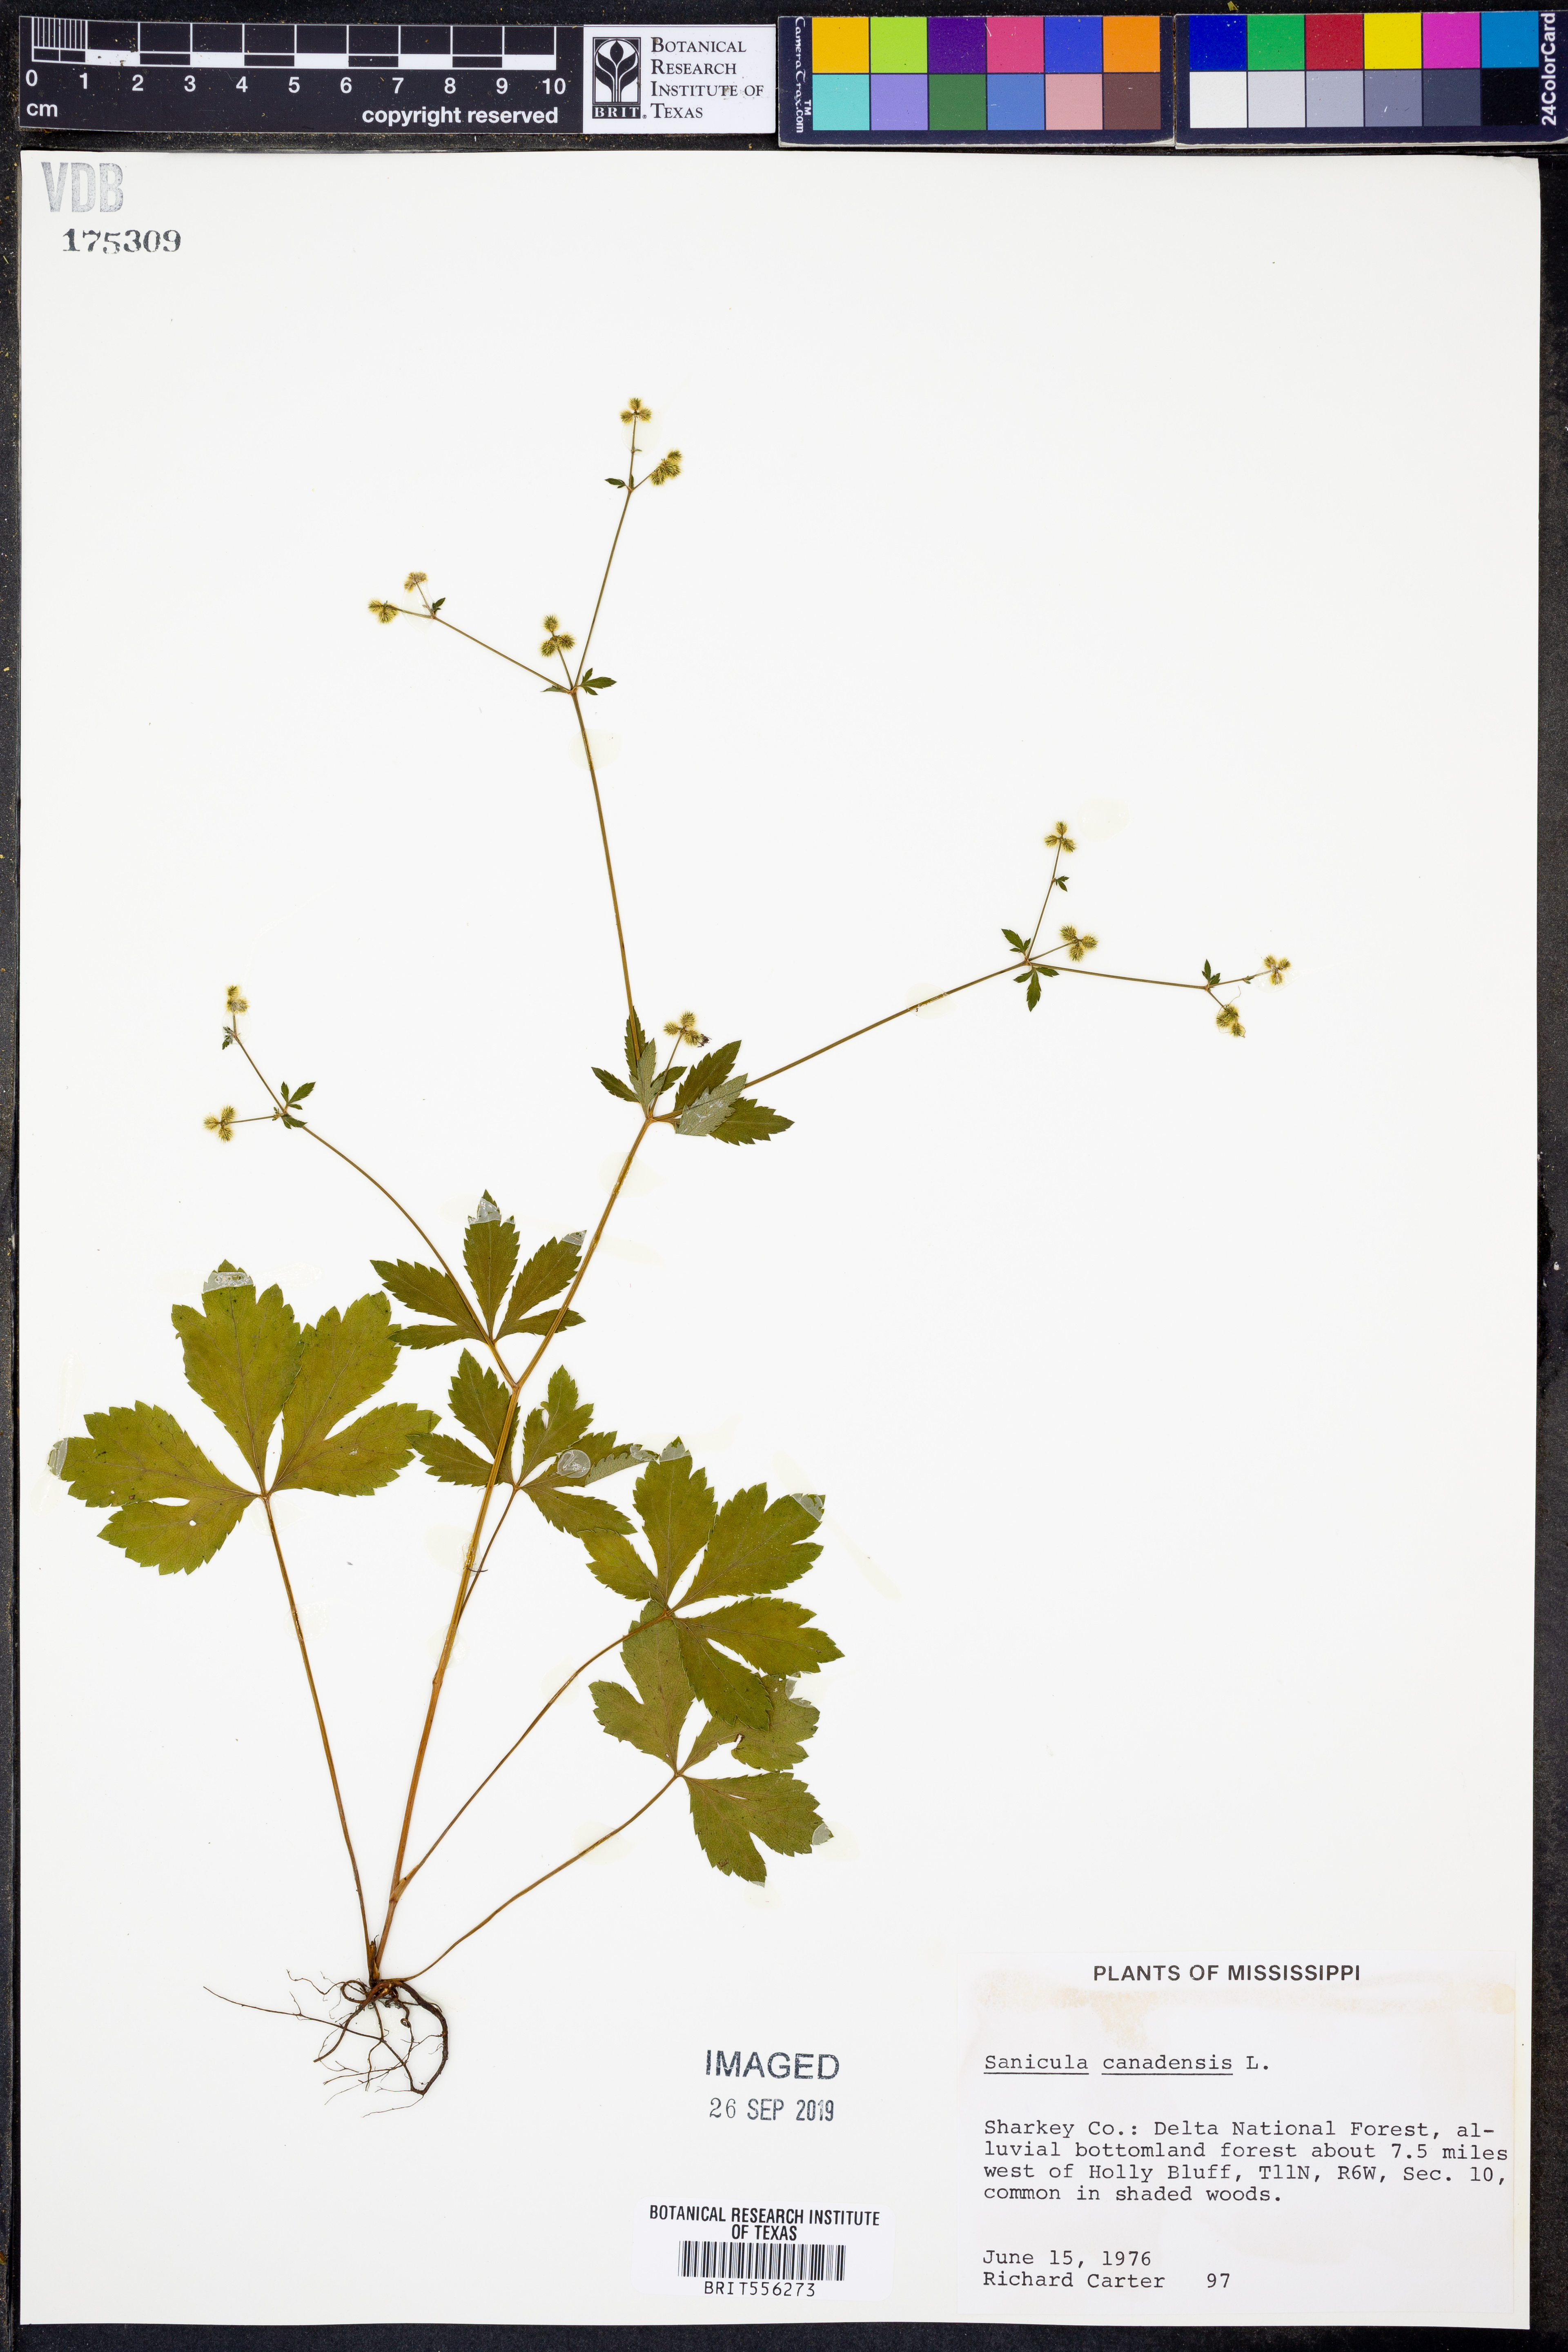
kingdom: Plantae
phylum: Tracheophyta
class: Magnoliopsida
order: Apiales
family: Apiaceae
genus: Sanicula
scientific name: Sanicula canadensis
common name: Canada sanicle
